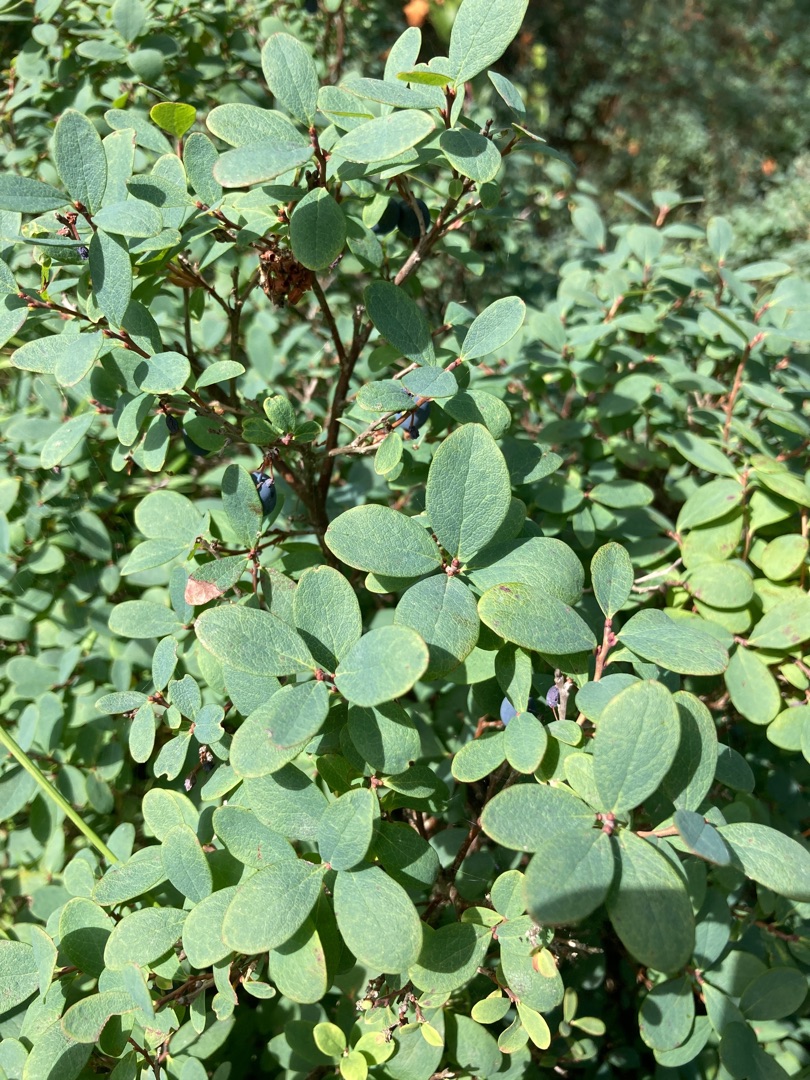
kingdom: Plantae
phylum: Tracheophyta
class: Magnoliopsida
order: Ericales
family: Ericaceae
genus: Vaccinium
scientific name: Vaccinium uliginosum
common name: Mose-bølle
